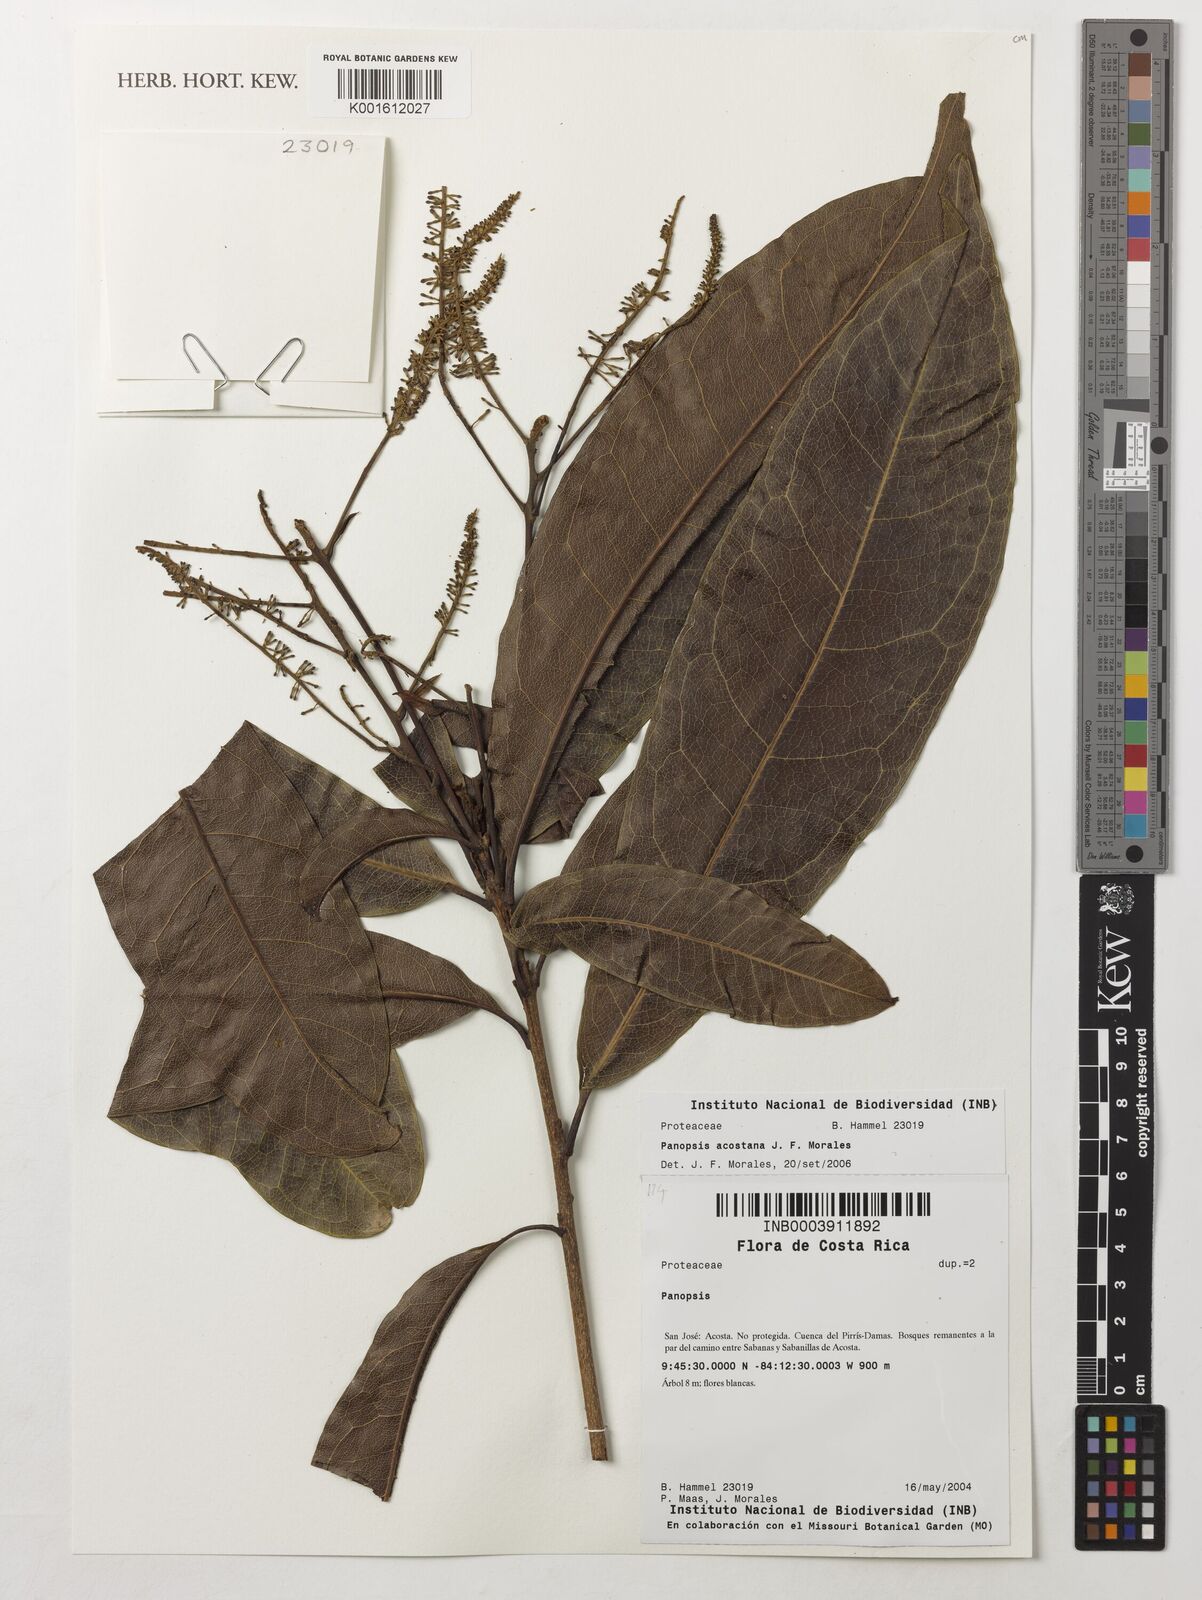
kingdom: Plantae
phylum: Tracheophyta
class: Magnoliopsida
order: Proteales
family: Proteaceae
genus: Panopsis
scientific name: Panopsis acostana
